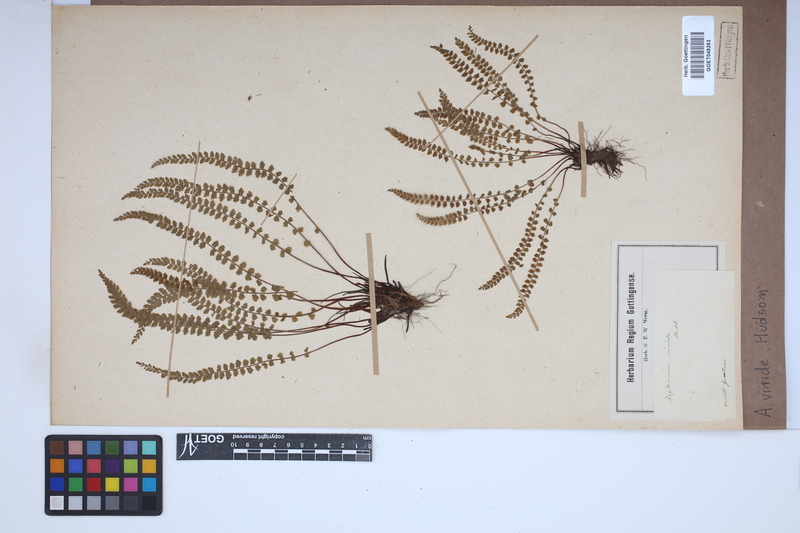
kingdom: Plantae
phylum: Tracheophyta
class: Polypodiopsida
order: Polypodiales
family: Aspleniaceae
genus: Asplenium
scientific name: Asplenium viride
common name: Green spleenwort
